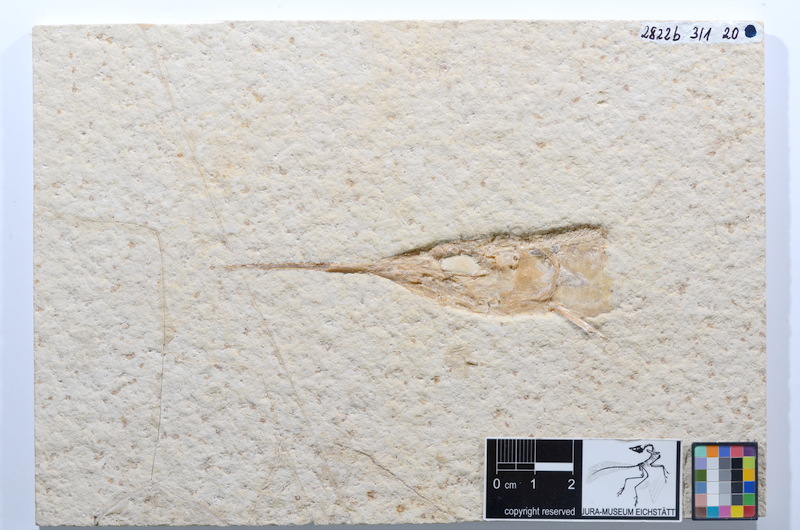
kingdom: Animalia
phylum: Chordata
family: Aspidorhynchidae
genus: Aspidorhynchus
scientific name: Aspidorhynchus acutirostris
